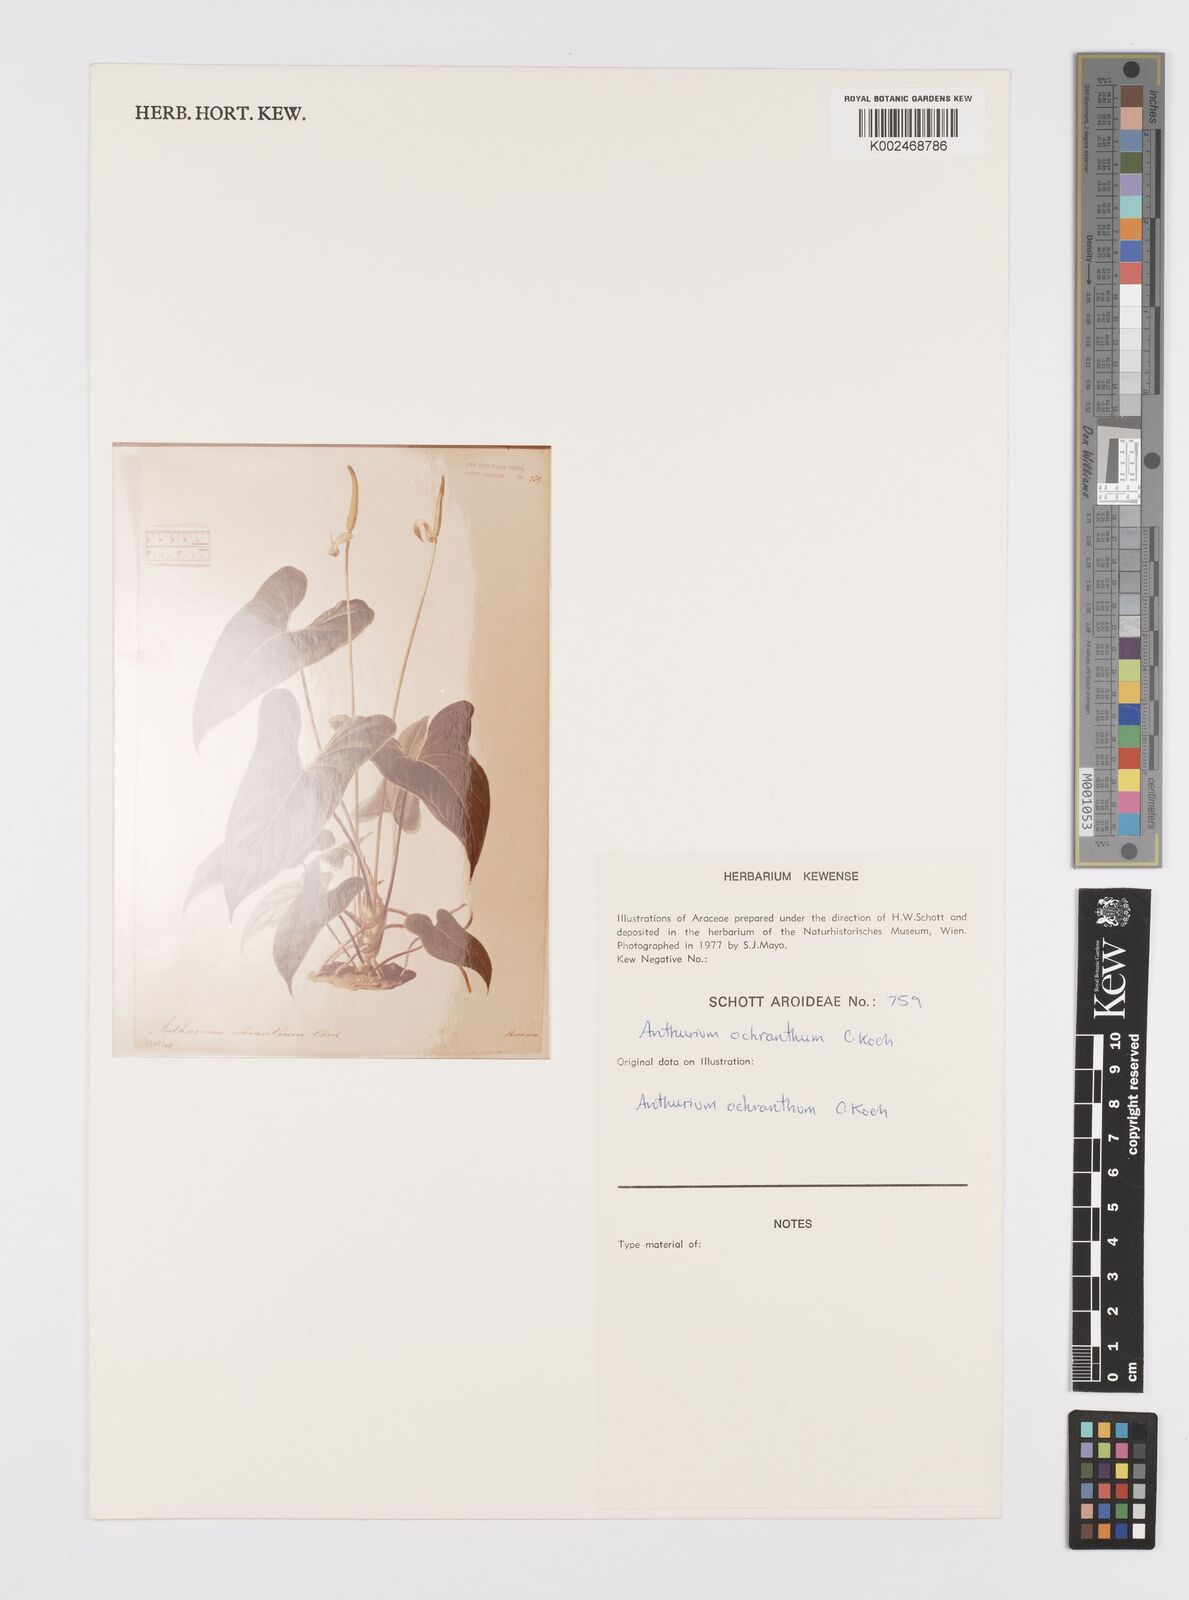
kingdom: Plantae
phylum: Tracheophyta
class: Liliopsida
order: Alismatales
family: Araceae
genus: Anthurium
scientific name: Anthurium ochranthum
